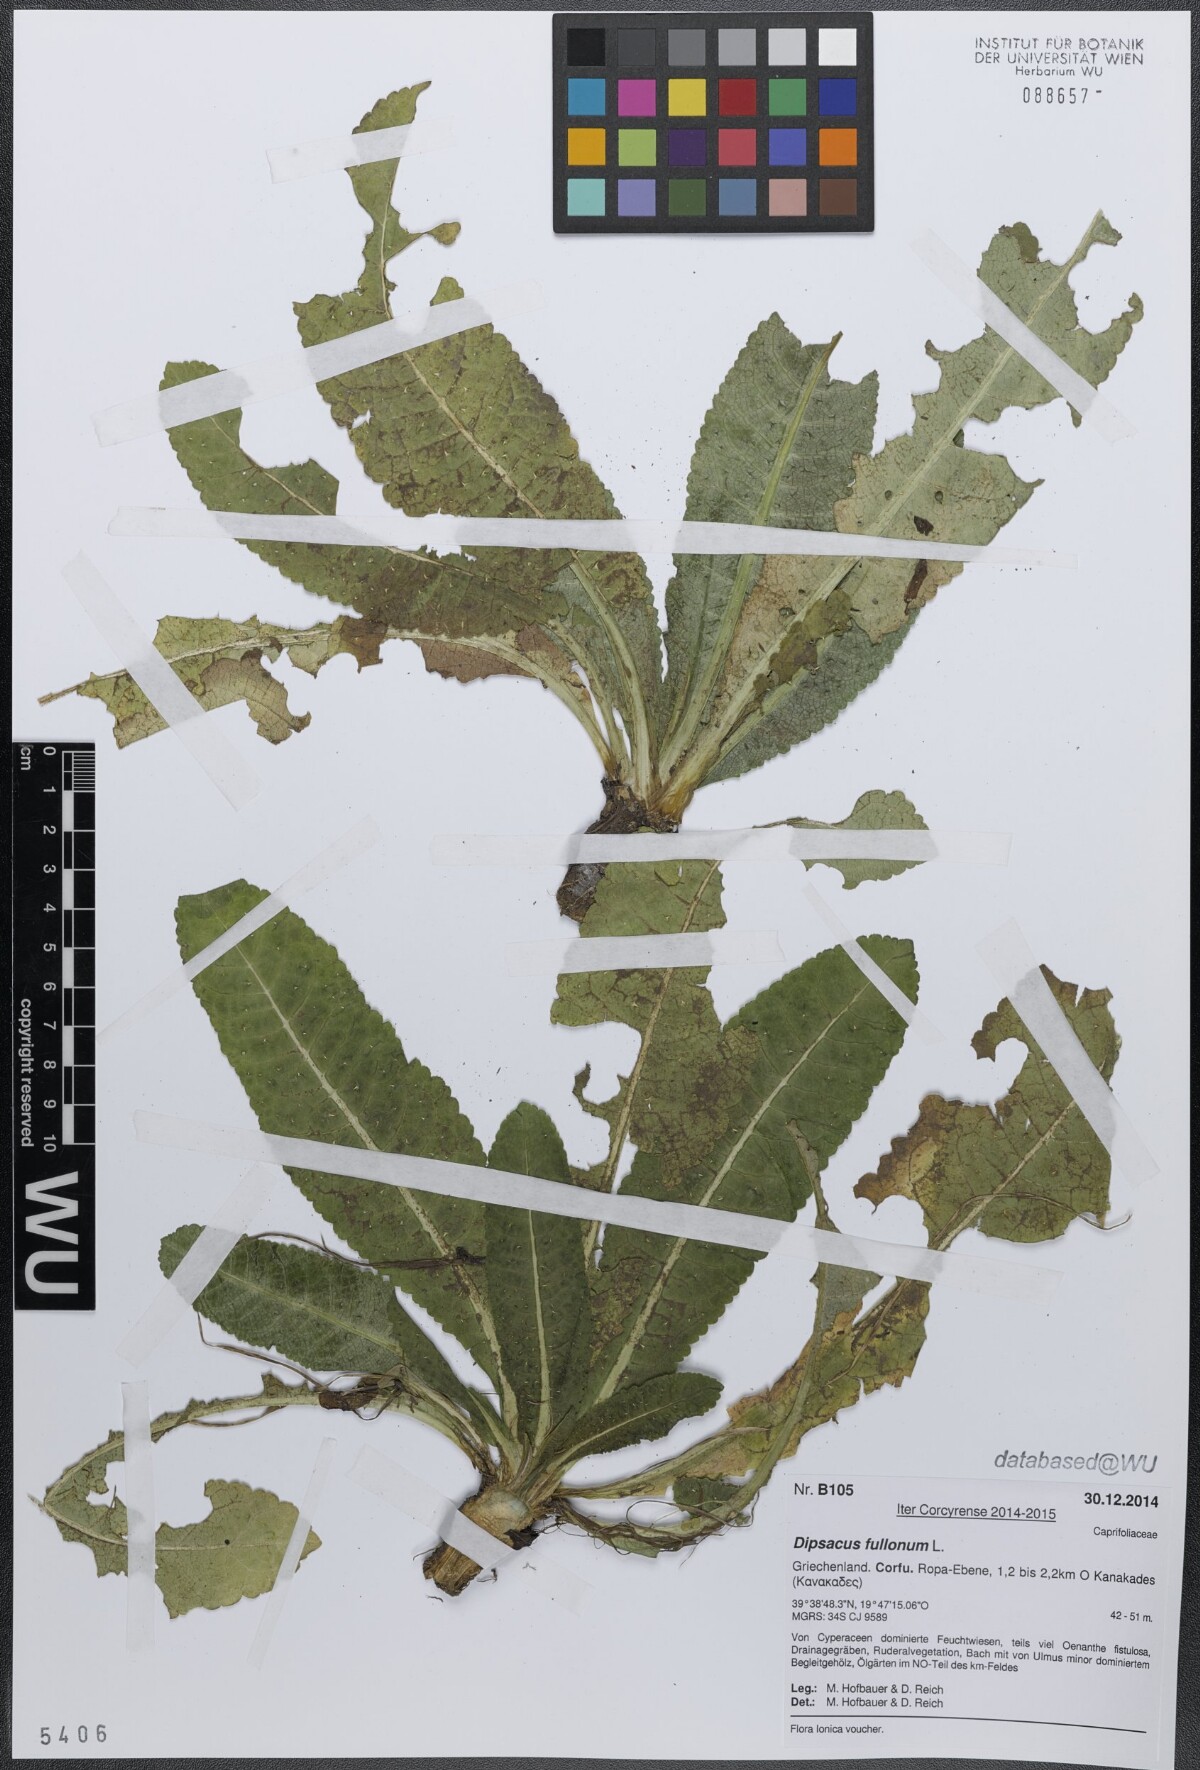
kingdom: Plantae
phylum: Tracheophyta
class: Magnoliopsida
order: Dipsacales
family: Caprifoliaceae
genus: Dipsacus
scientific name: Dipsacus fullonum
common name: Teasel
